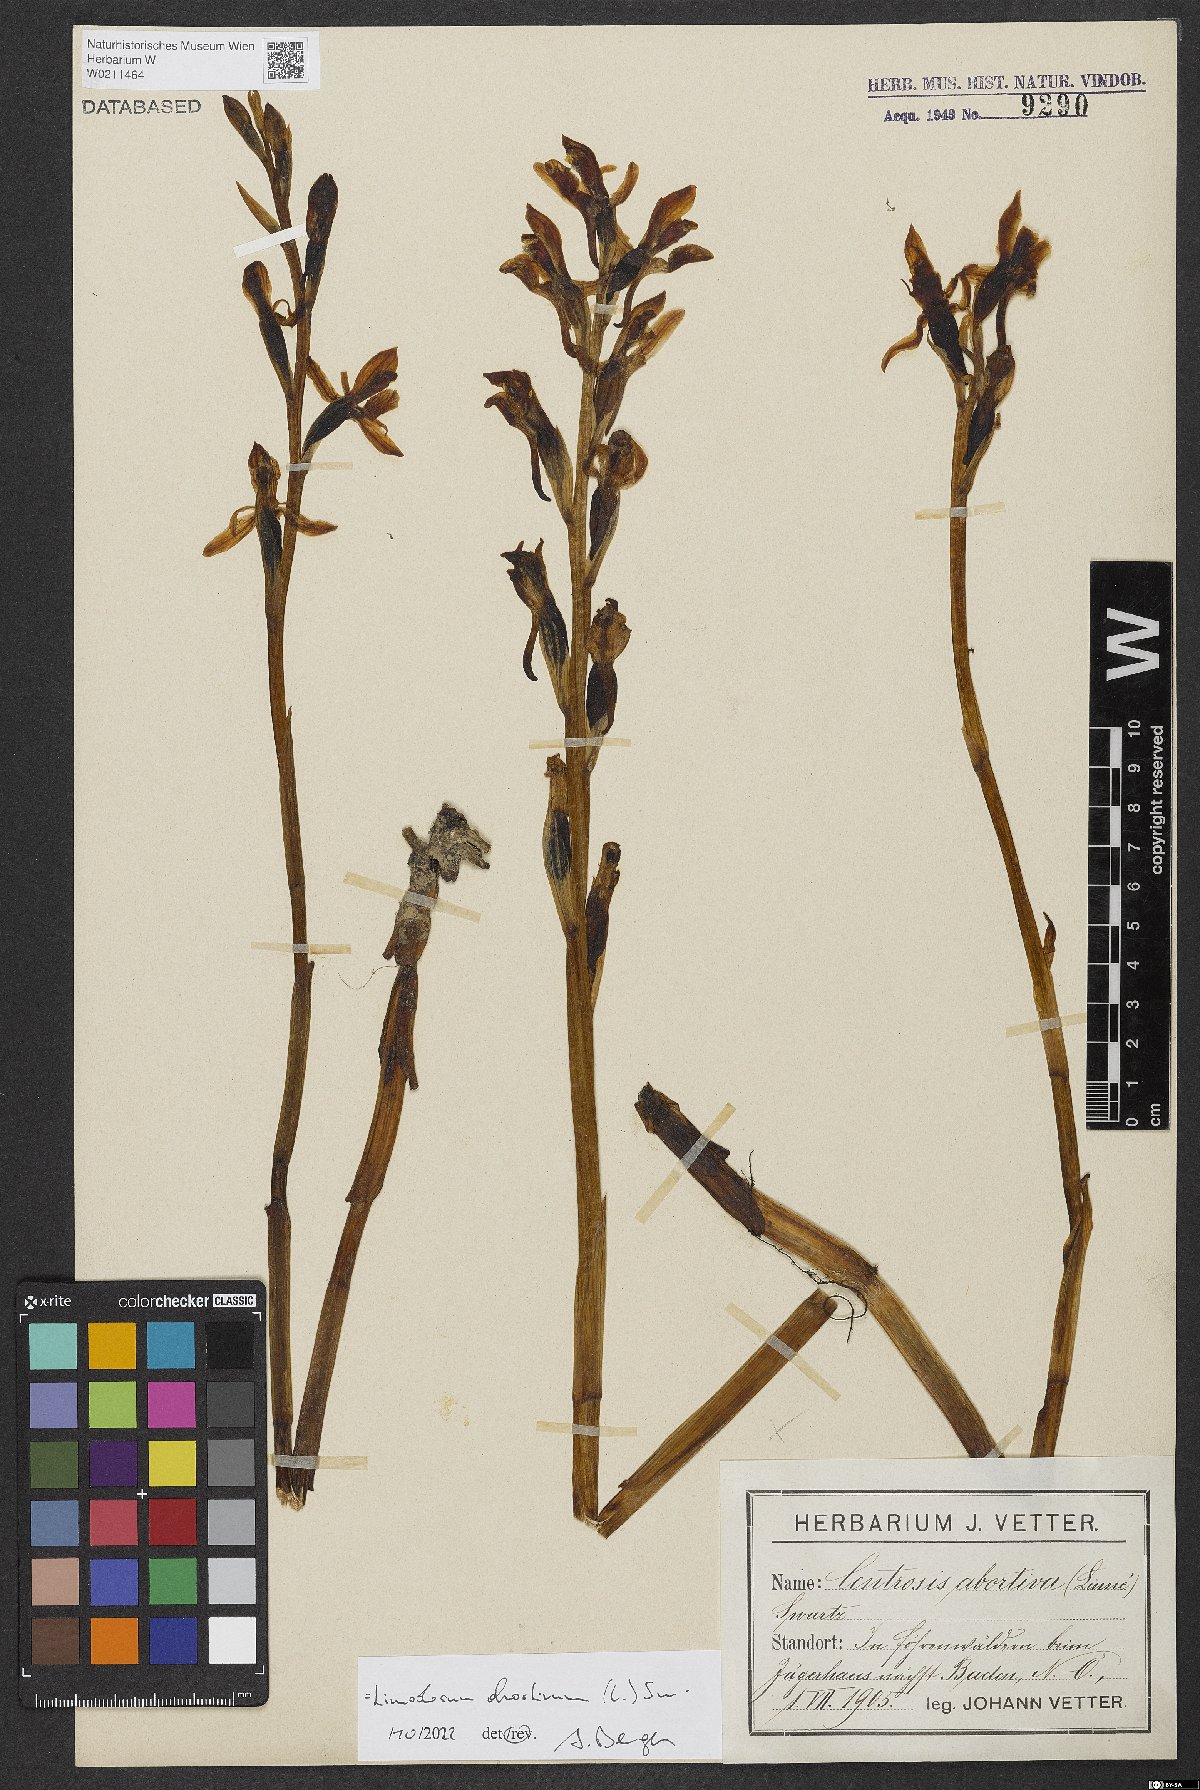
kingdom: Plantae
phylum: Tracheophyta
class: Liliopsida
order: Asparagales
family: Orchidaceae
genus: Limodorum
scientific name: Limodorum abortivum
